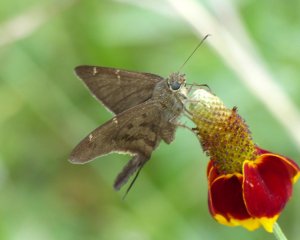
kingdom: Animalia
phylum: Arthropoda
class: Insecta
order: Lepidoptera
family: Hesperiidae
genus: Urbanus
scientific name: Urbanus procne
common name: Brown Longtail
